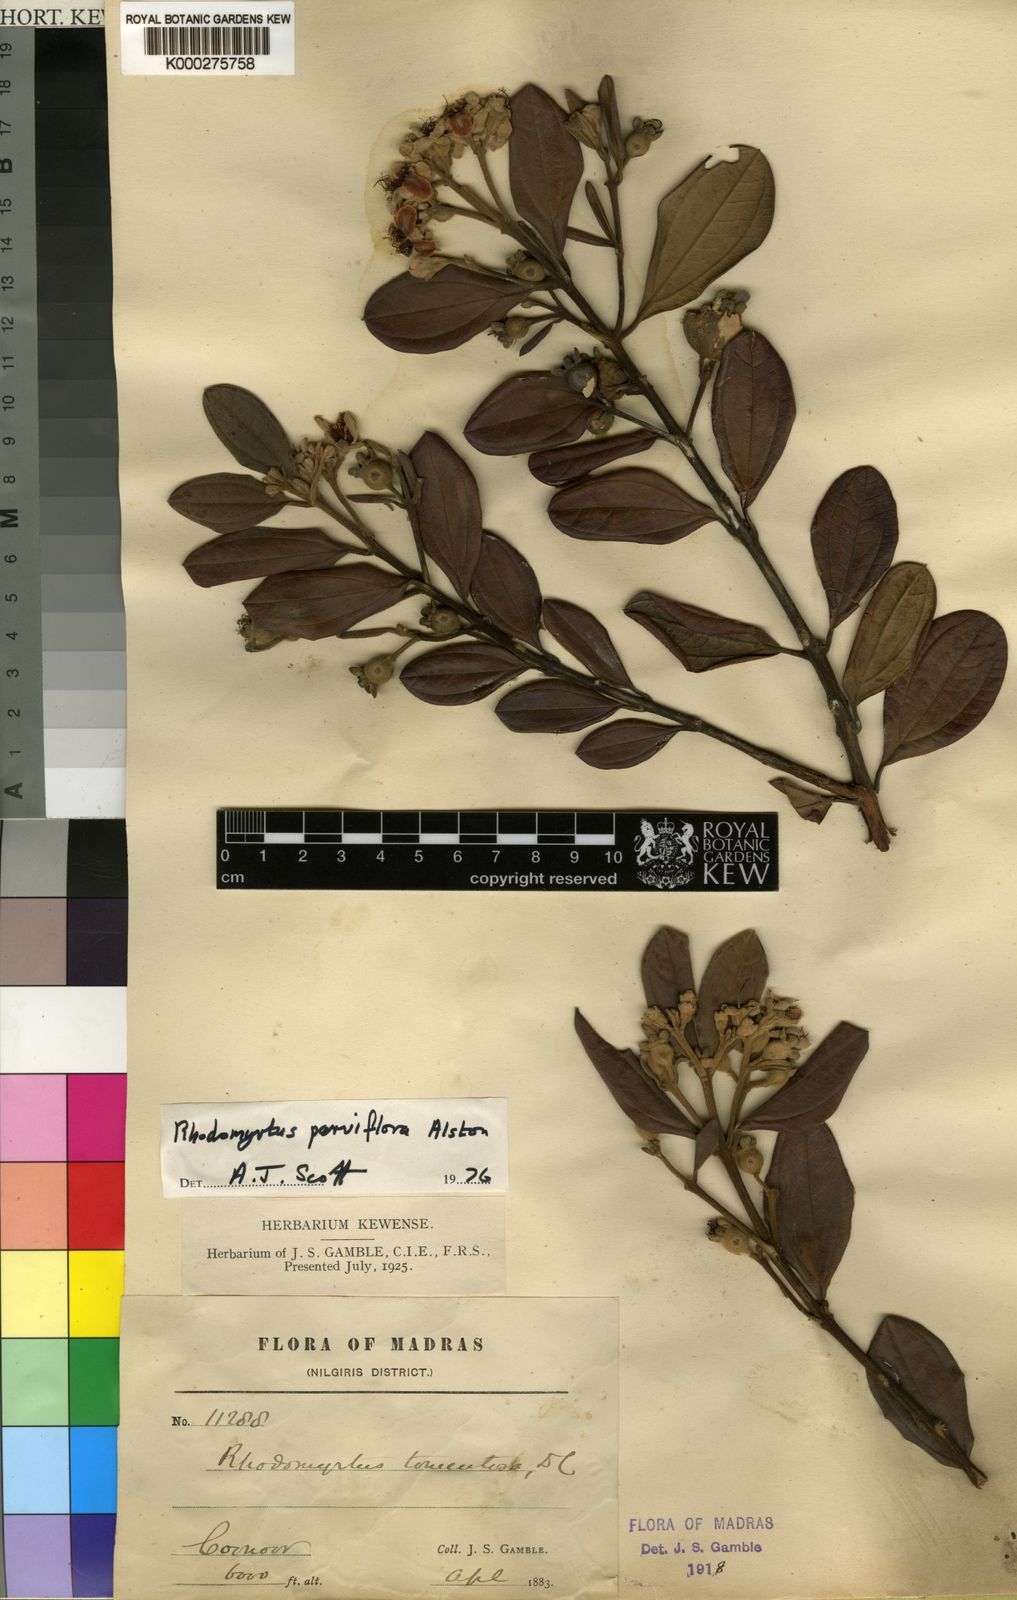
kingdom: Plantae
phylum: Tracheophyta
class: Magnoliopsida
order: Myrtales
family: Myrtaceae
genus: Rhodomyrtus
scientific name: Rhodomyrtus tomentosa
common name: Rose myrtle
